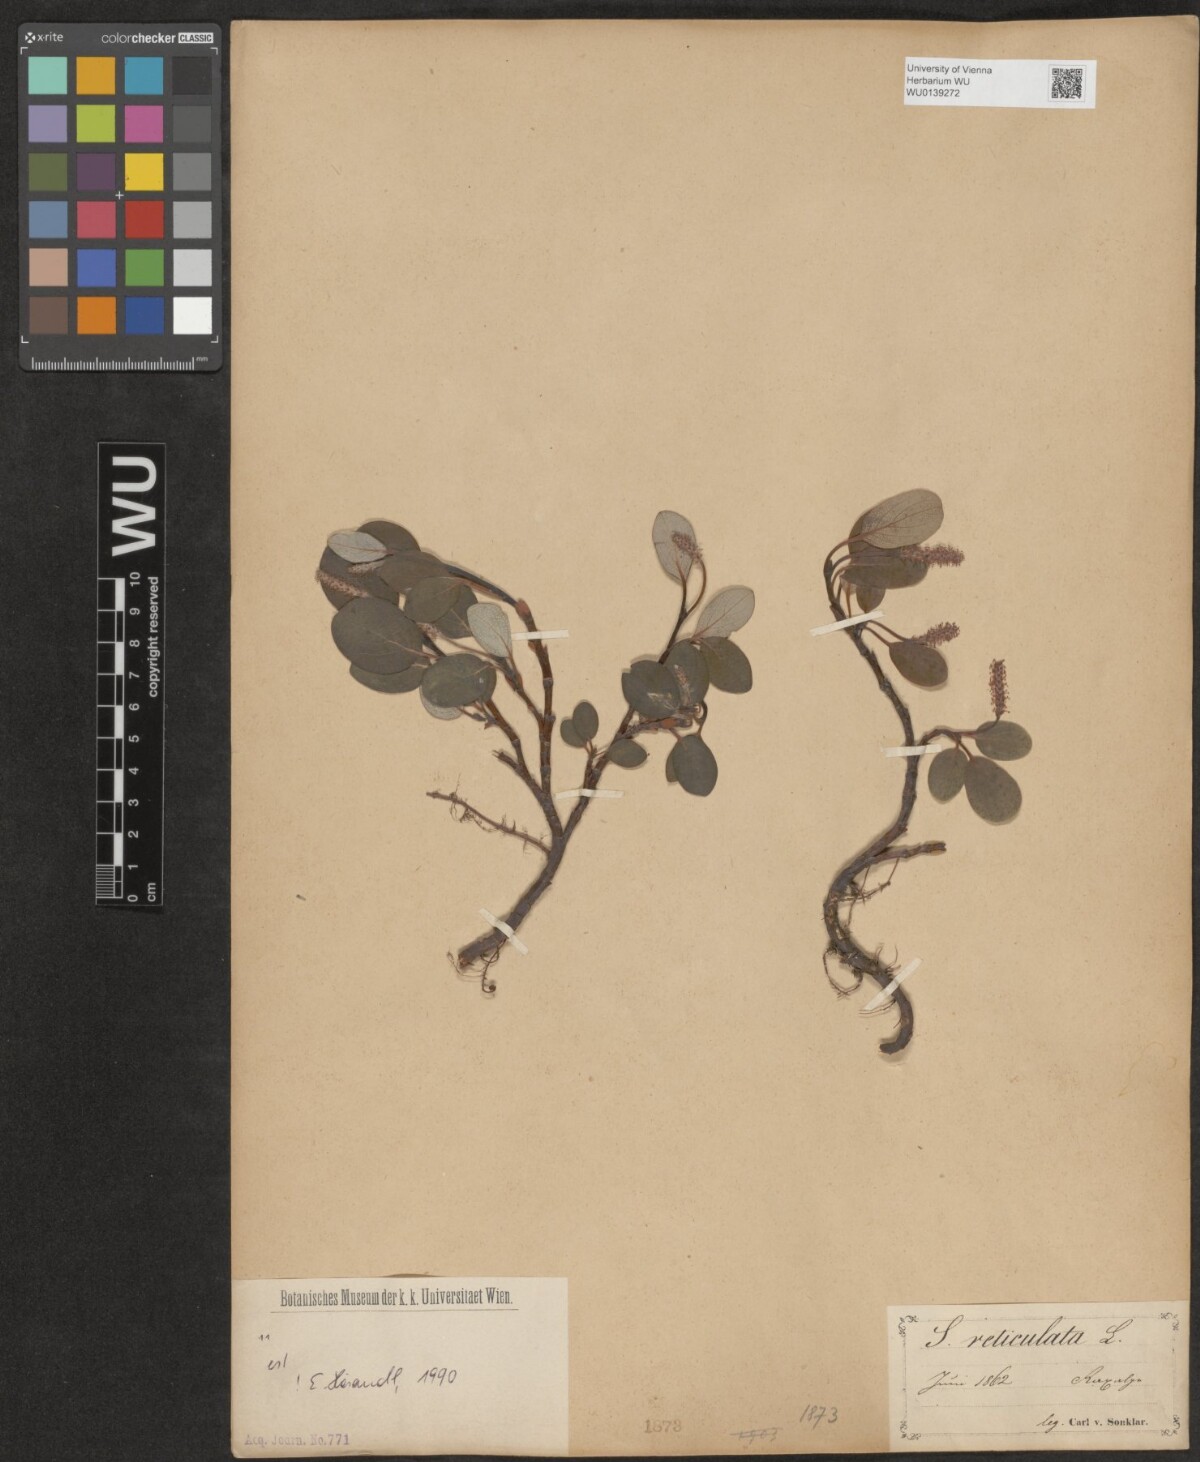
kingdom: Plantae
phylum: Tracheophyta
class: Magnoliopsida
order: Malpighiales
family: Salicaceae
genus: Salix
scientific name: Salix reticulata
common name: Net-leaved willow
